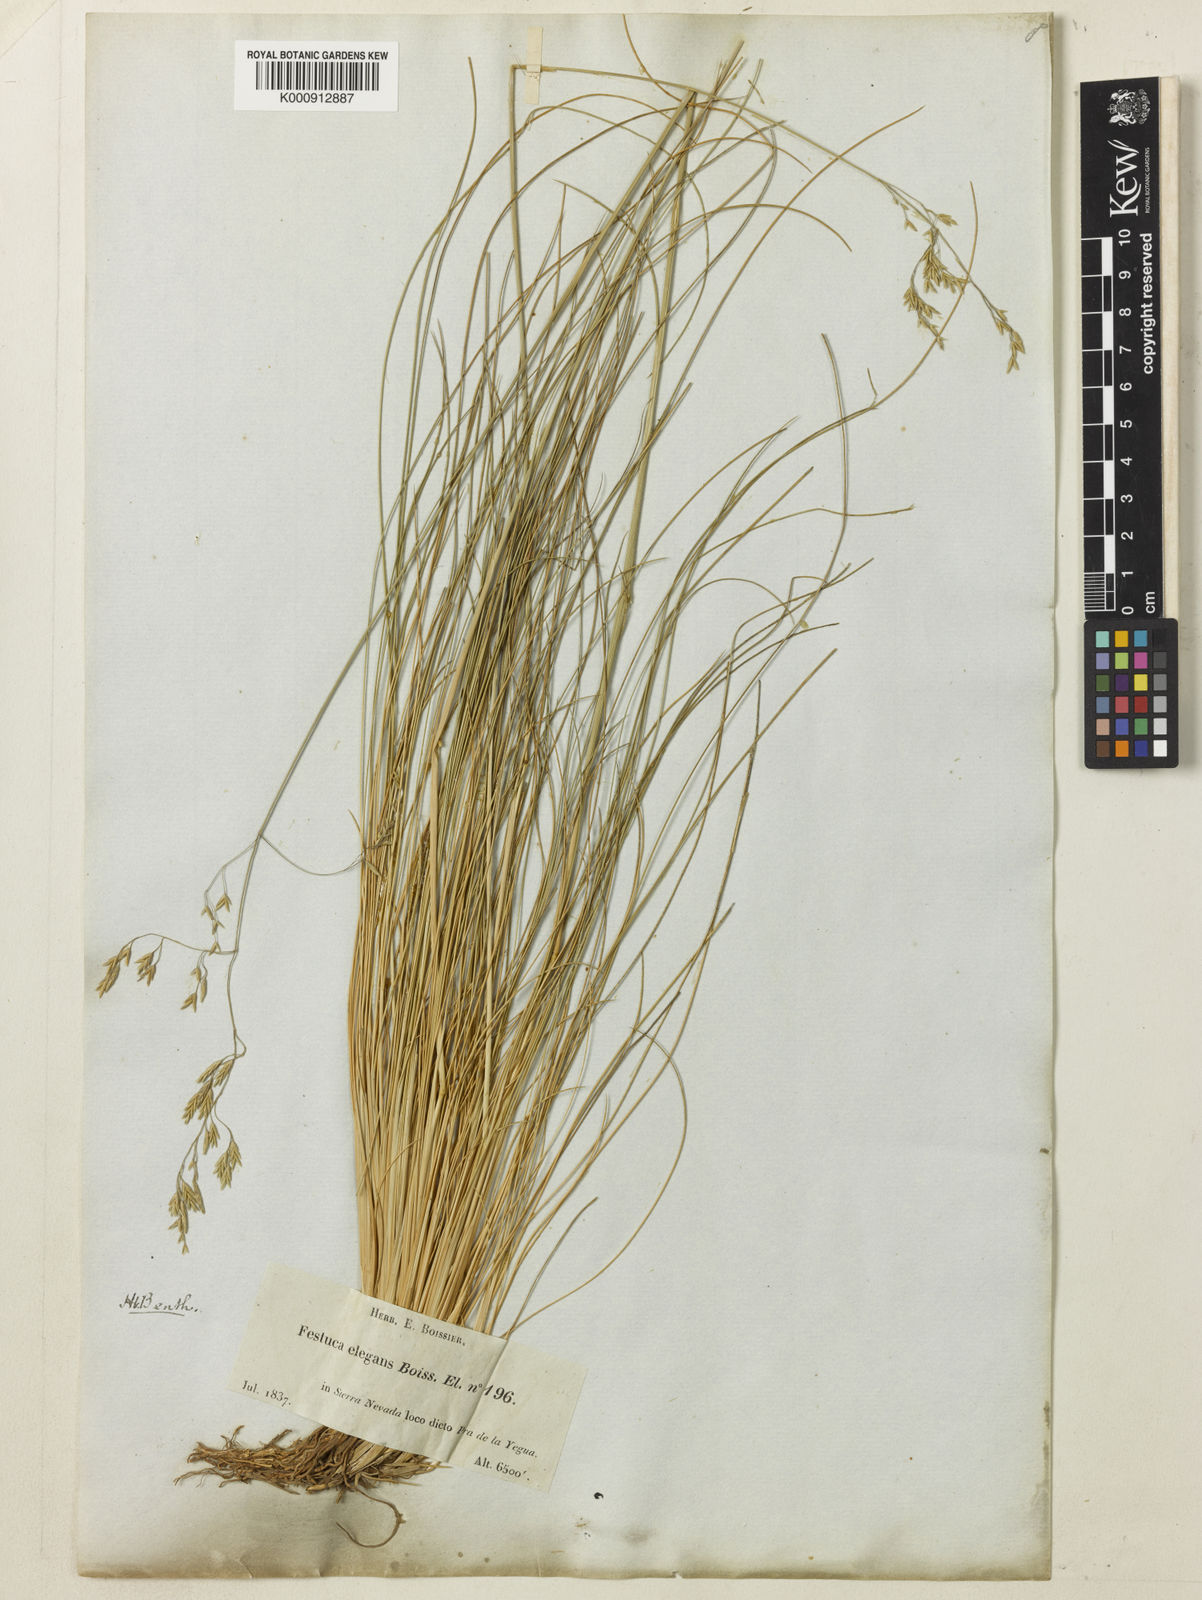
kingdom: Plantae
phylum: Tracheophyta
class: Liliopsida
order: Poales
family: Poaceae
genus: Festuca
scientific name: Festuca elegans
